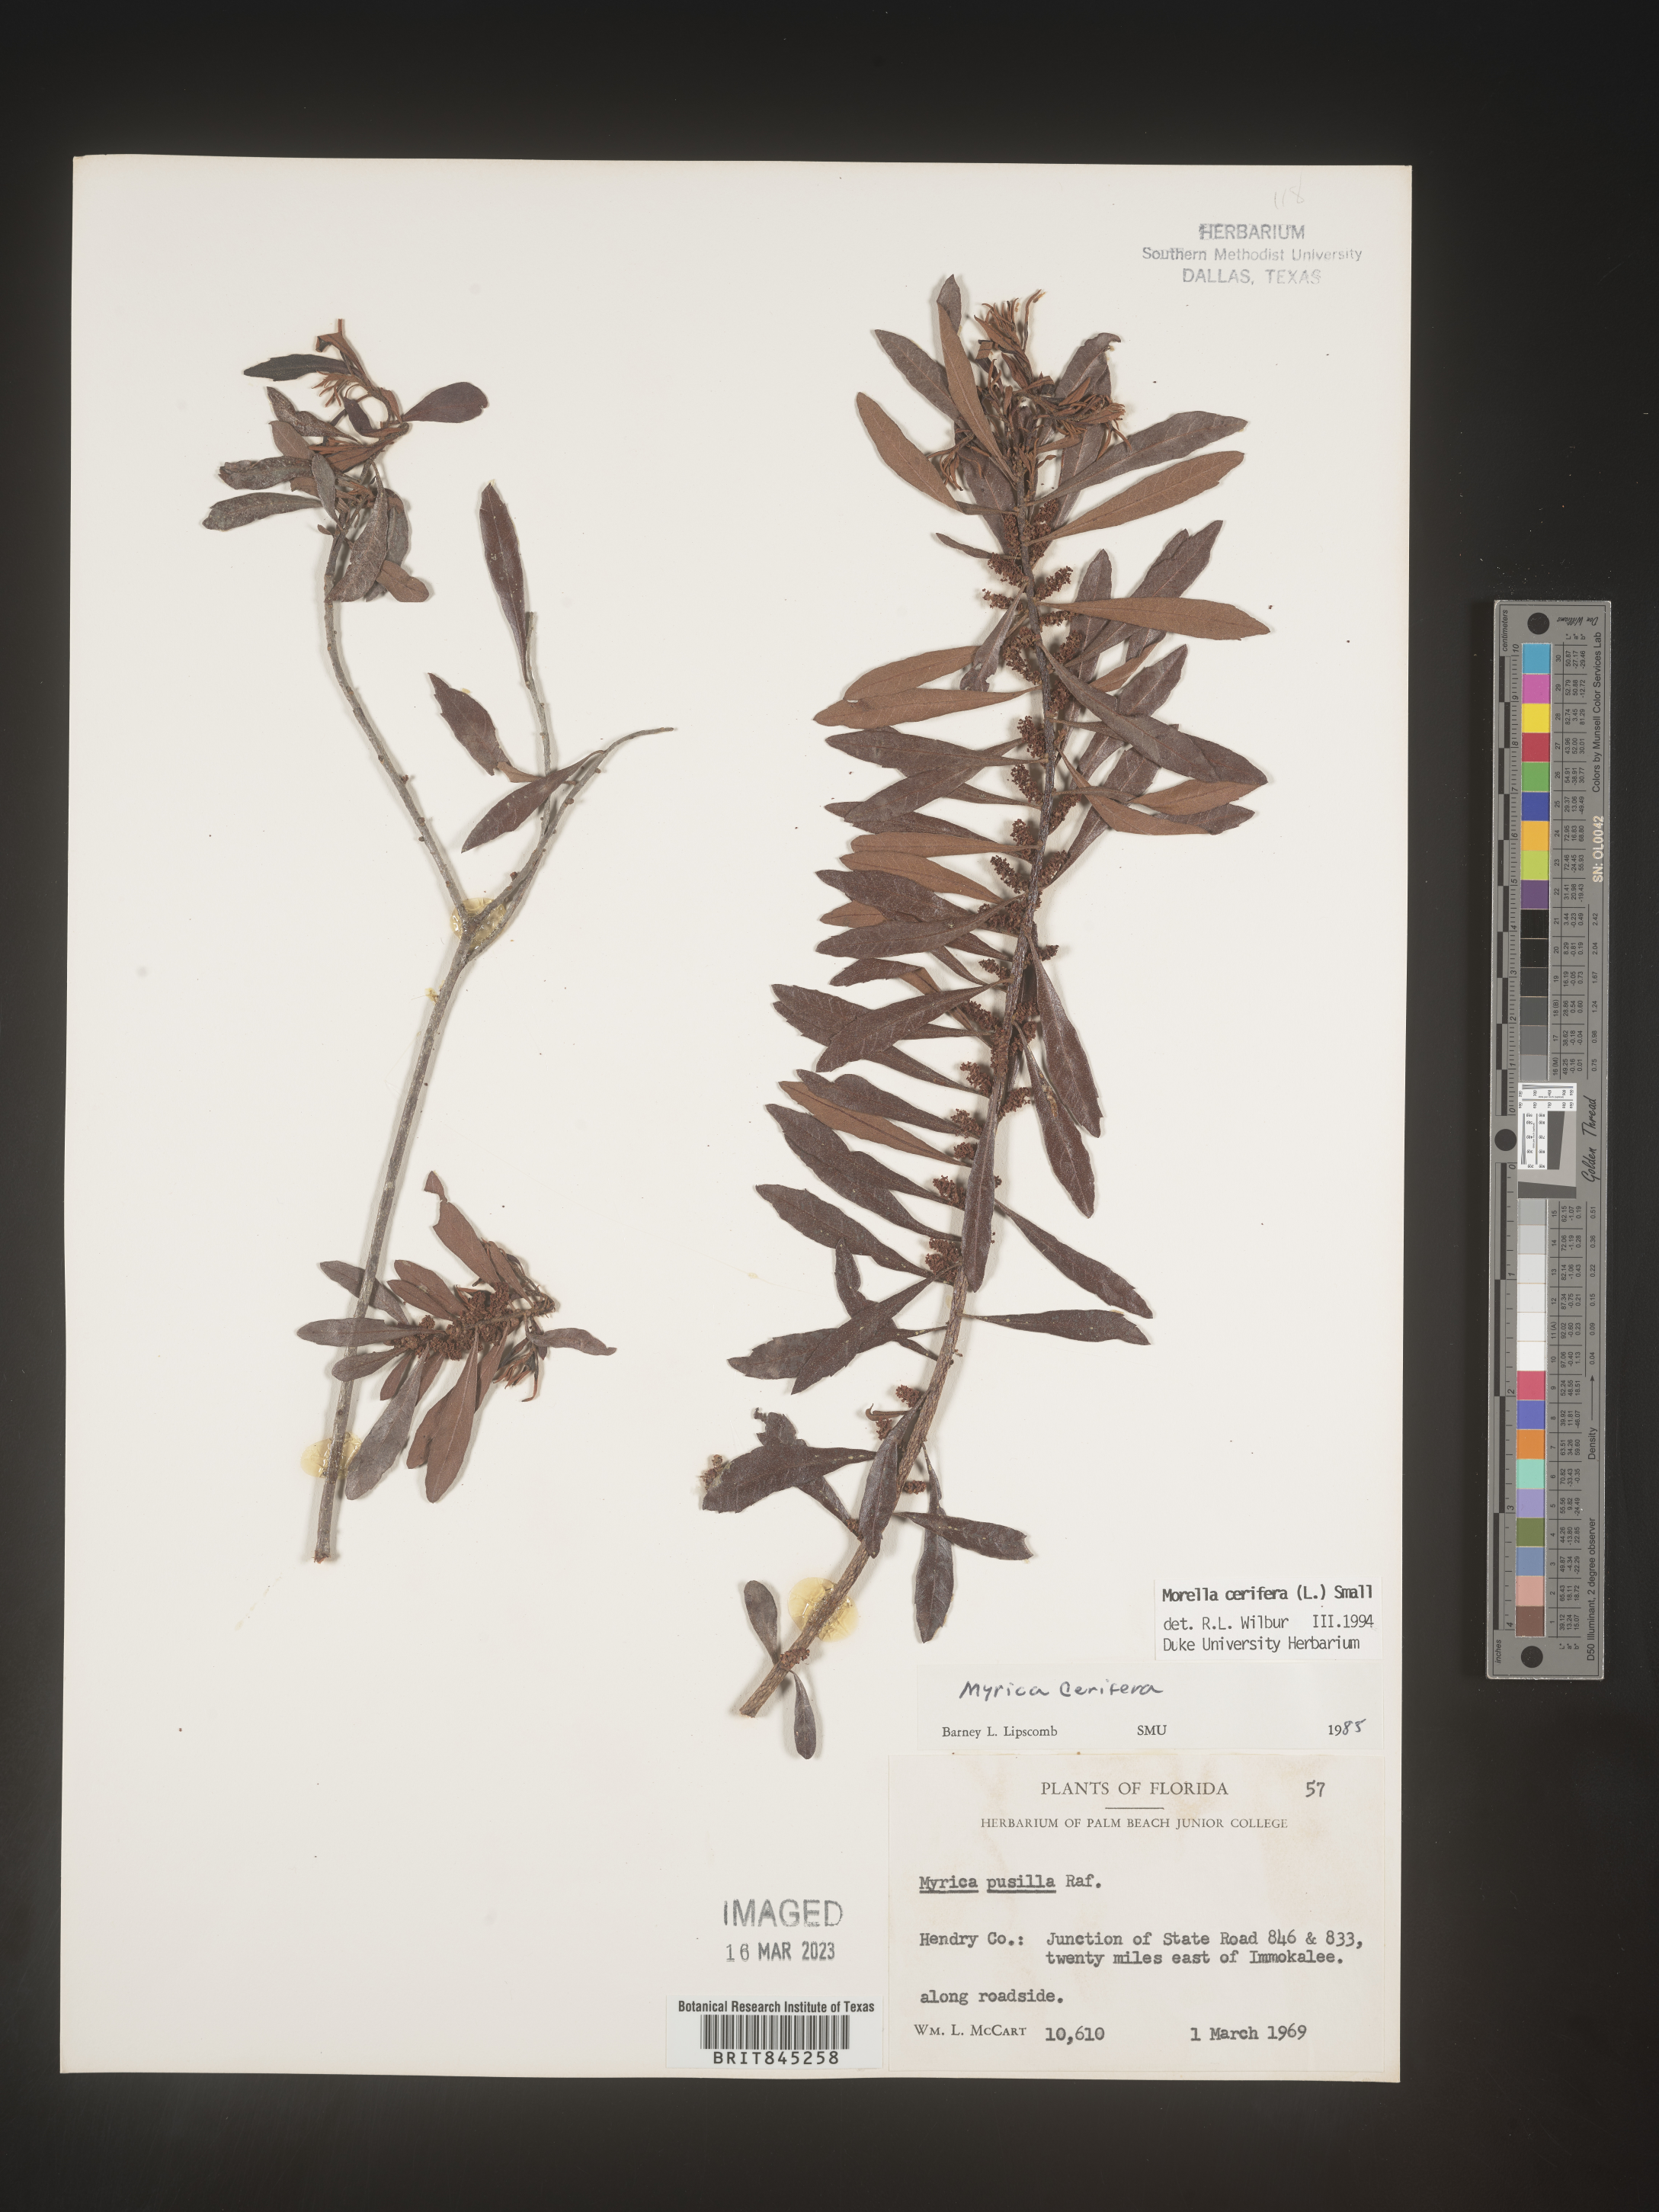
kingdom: Plantae
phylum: Tracheophyta
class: Magnoliopsida
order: Fagales
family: Myricaceae
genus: Morella
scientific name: Morella cerifera
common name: Wax myrtle
